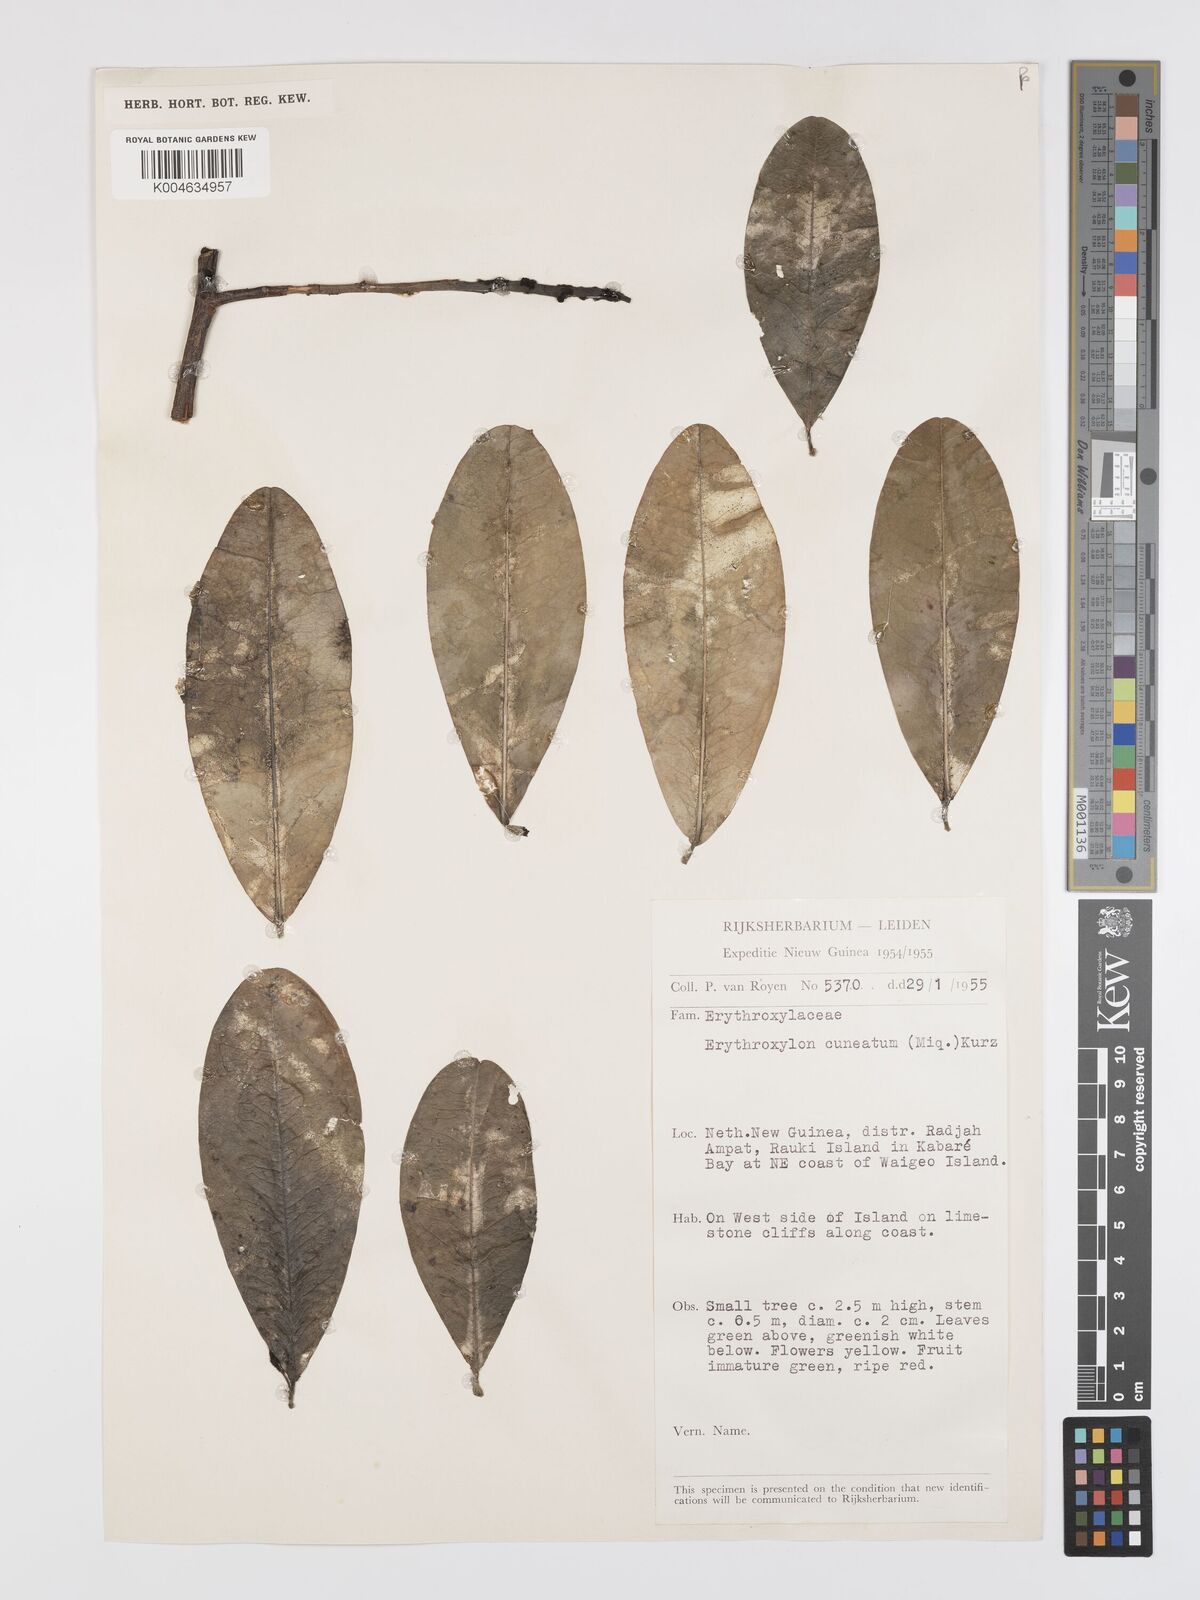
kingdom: Plantae
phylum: Tracheophyta
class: Magnoliopsida
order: Malpighiales
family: Erythroxylaceae
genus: Erythroxylum
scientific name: Erythroxylum cuneatum
